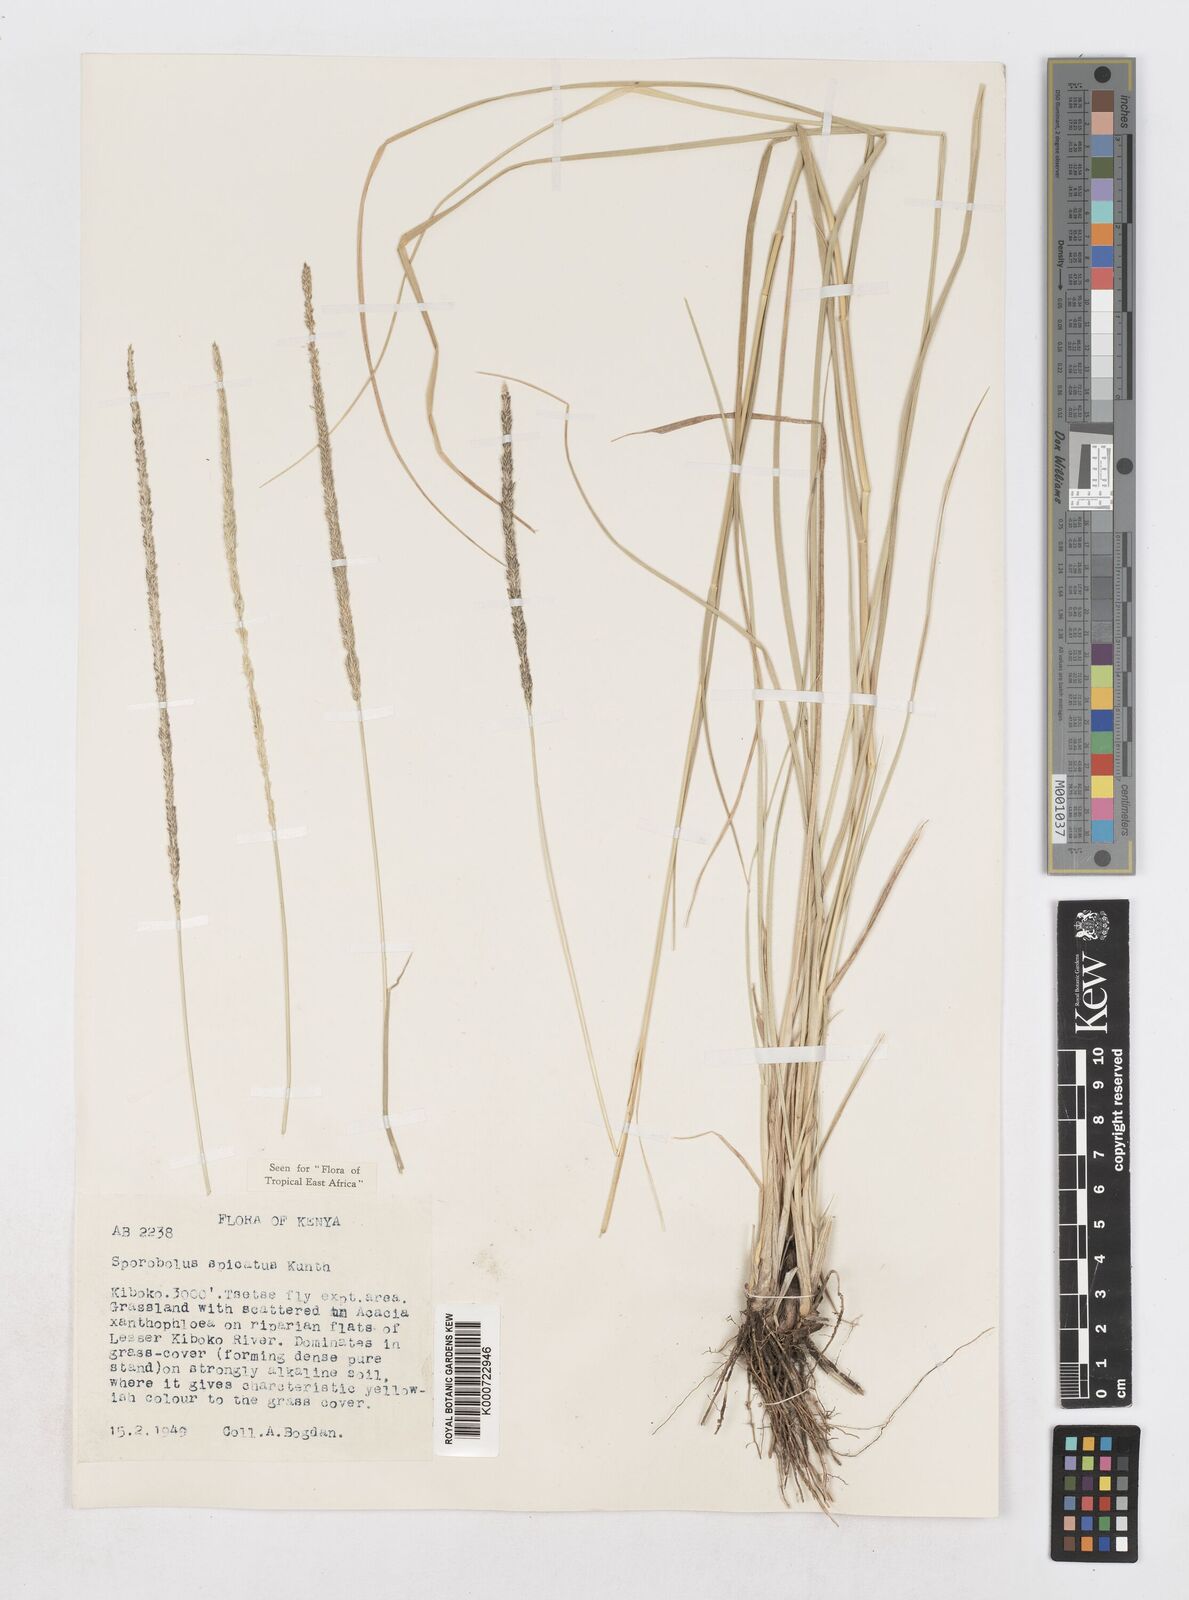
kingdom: Plantae
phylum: Tracheophyta
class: Liliopsida
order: Poales
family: Poaceae
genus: Sporobolus
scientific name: Sporobolus spicatus
